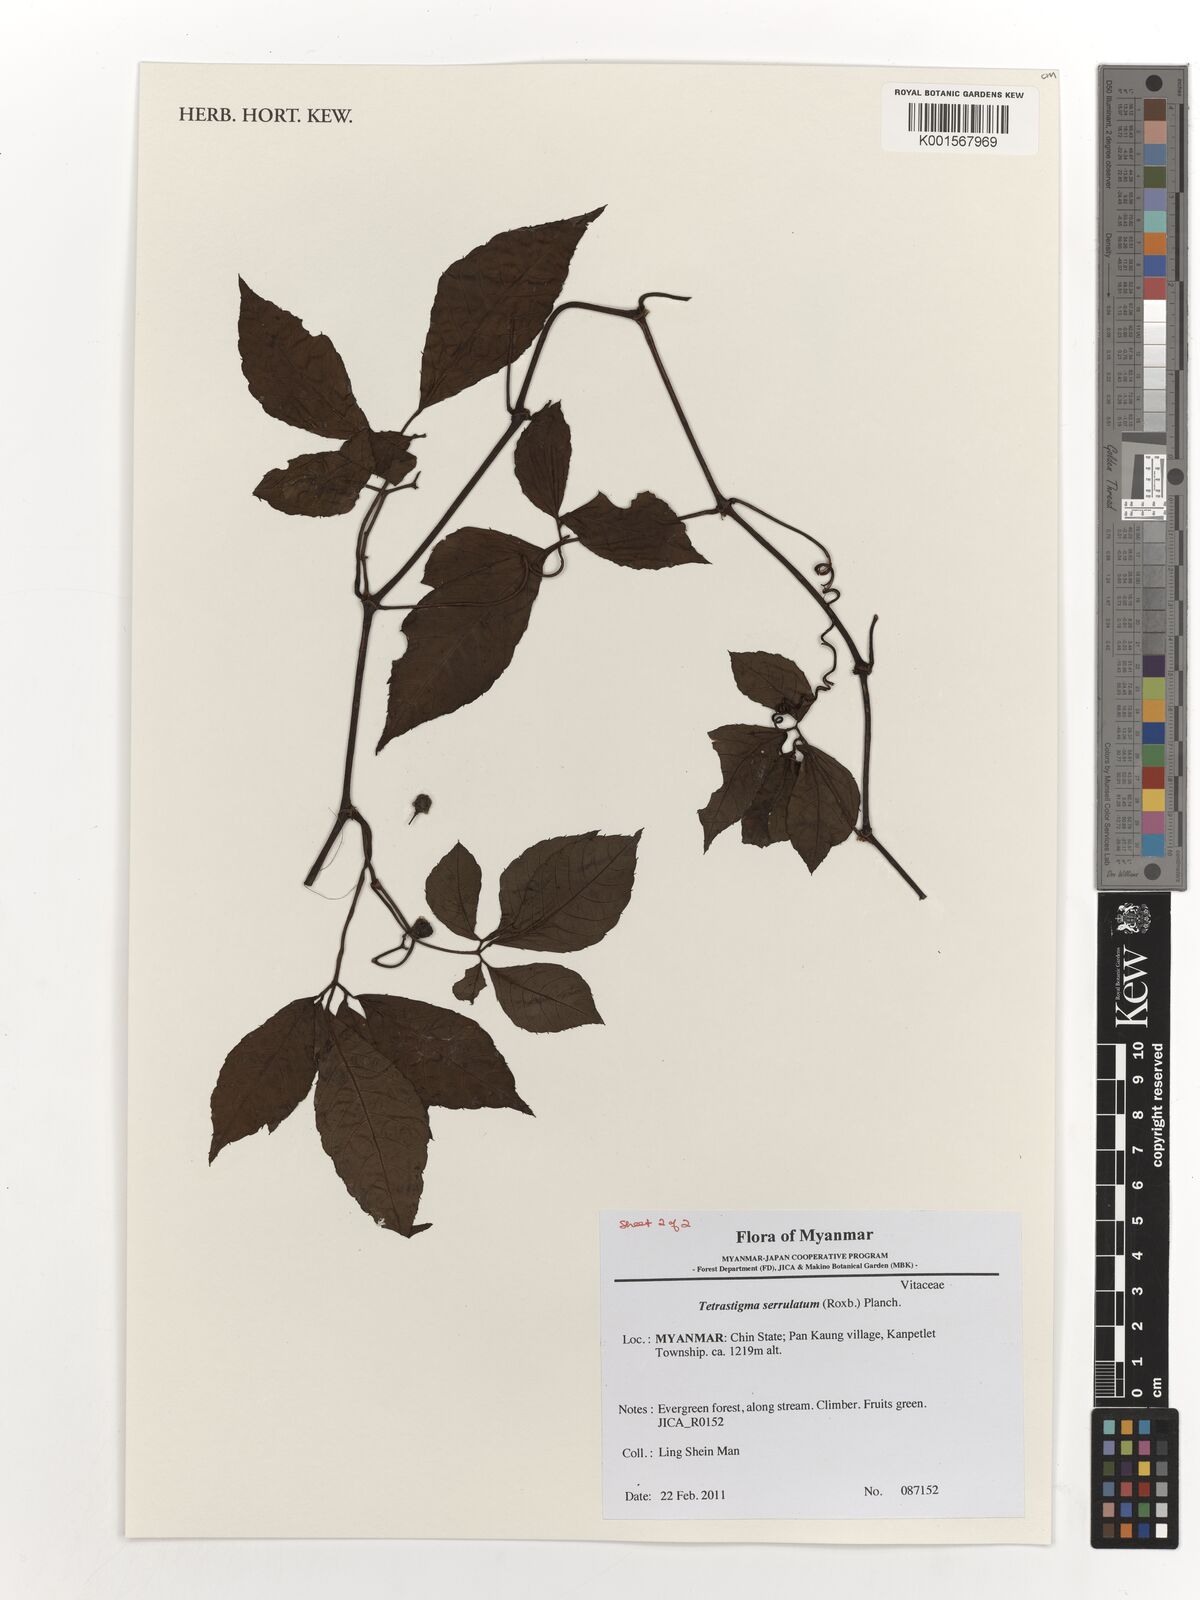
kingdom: Plantae
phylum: Tracheophyta
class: Magnoliopsida
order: Vitales
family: Vitaceae
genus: Tetrastigma
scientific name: Tetrastigma serrulatum
